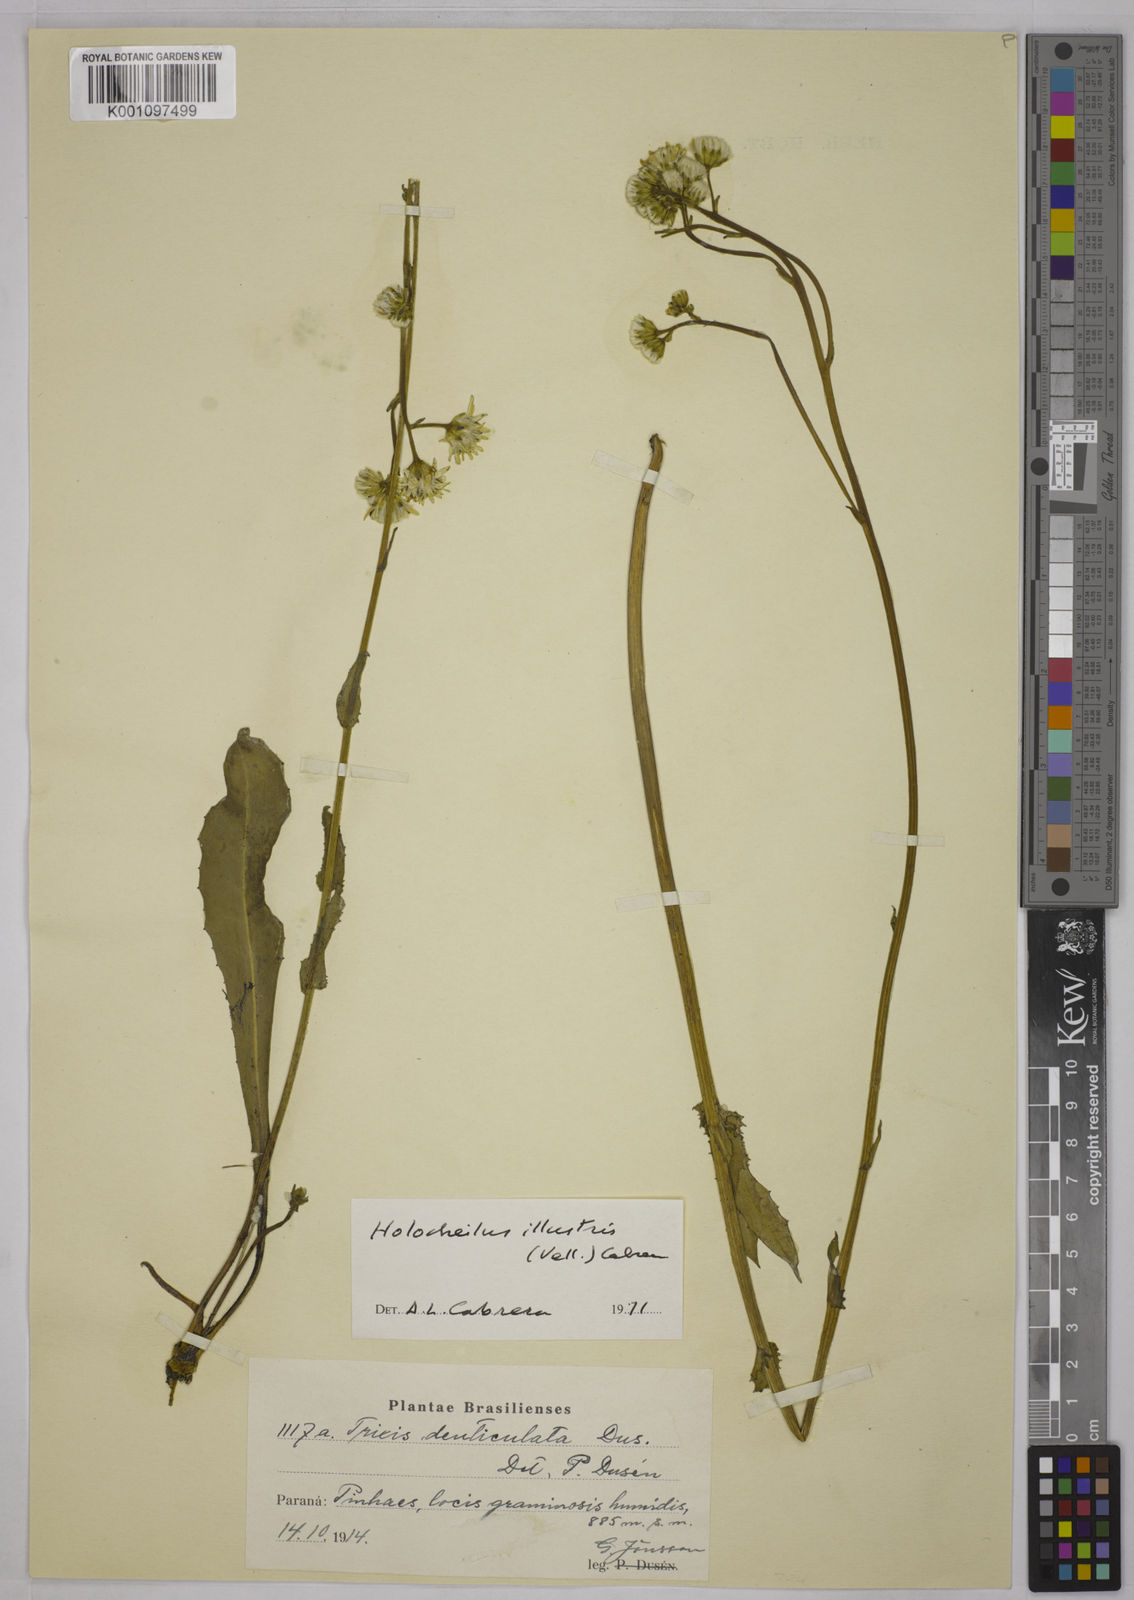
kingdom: Plantae
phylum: Tracheophyta
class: Magnoliopsida
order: Asterales
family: Asteraceae
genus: Holocheilus
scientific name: Holocheilus illustris
